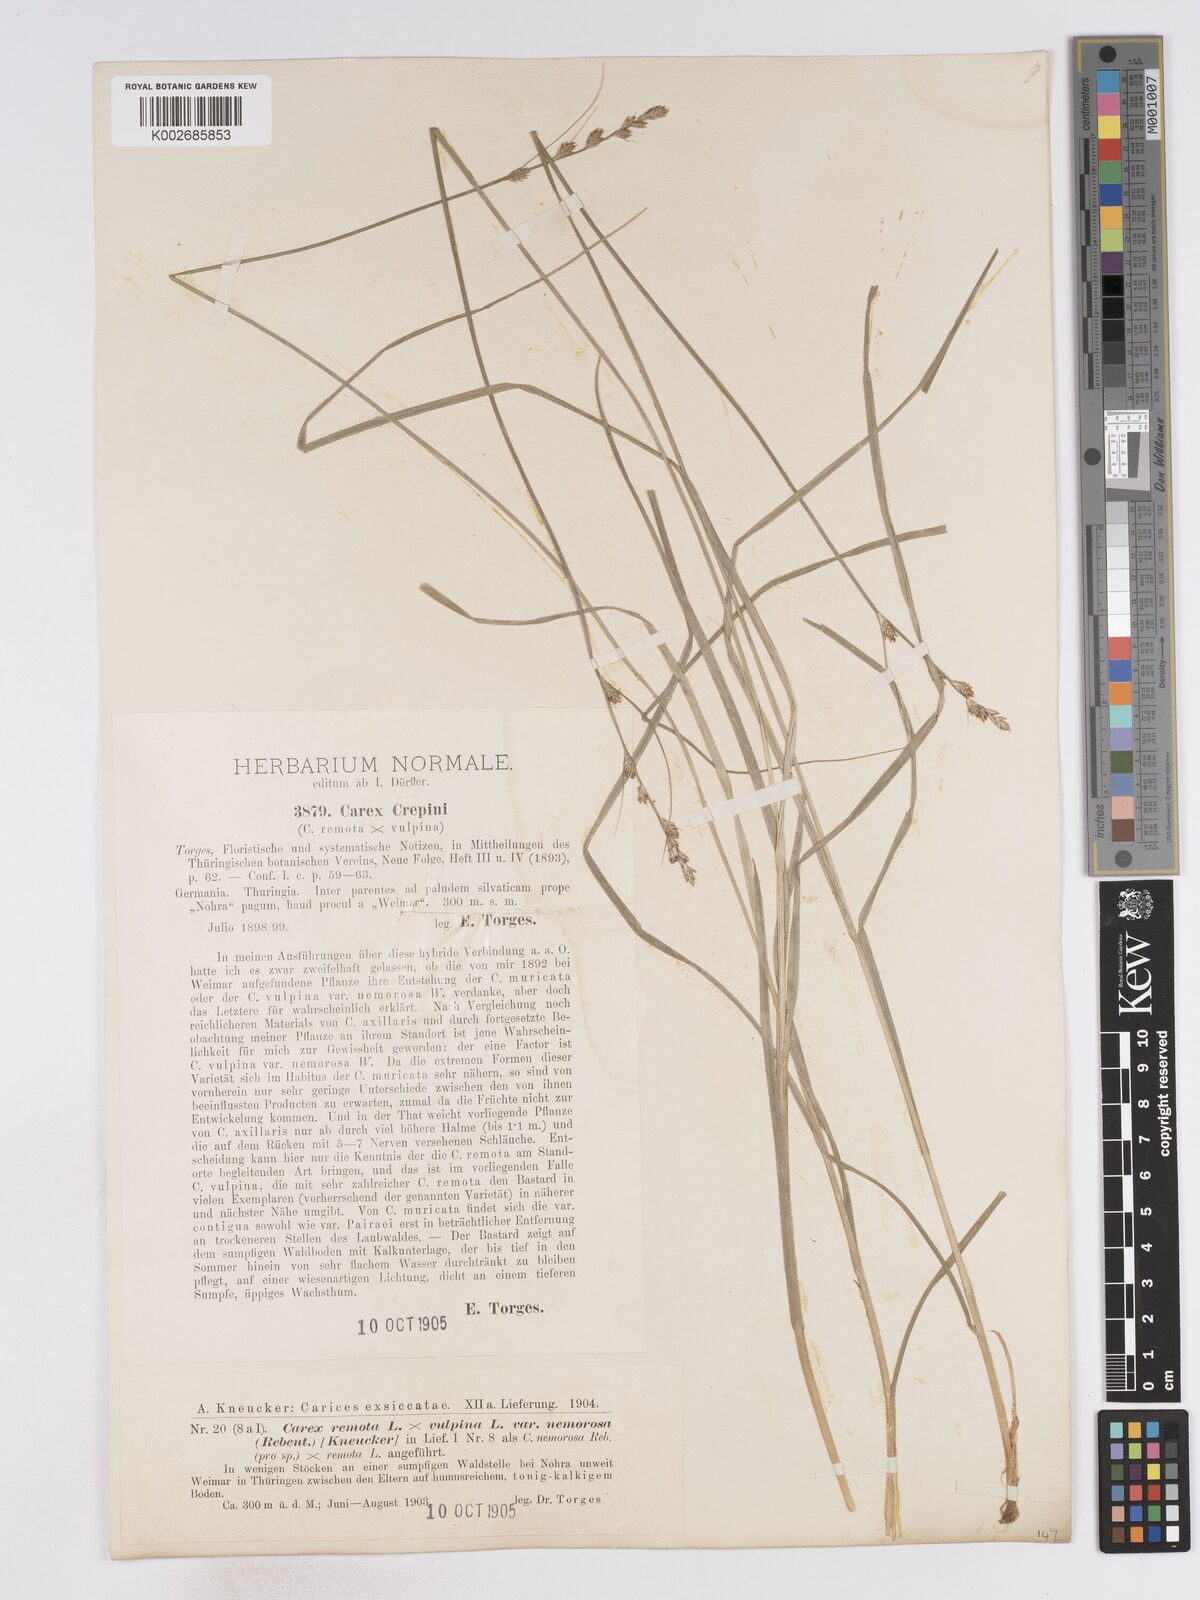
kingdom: Plantae
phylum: Tracheophyta
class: Liliopsida
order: Poales
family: Cyperaceae
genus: Carex
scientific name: Carex remota
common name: Remote sedge
